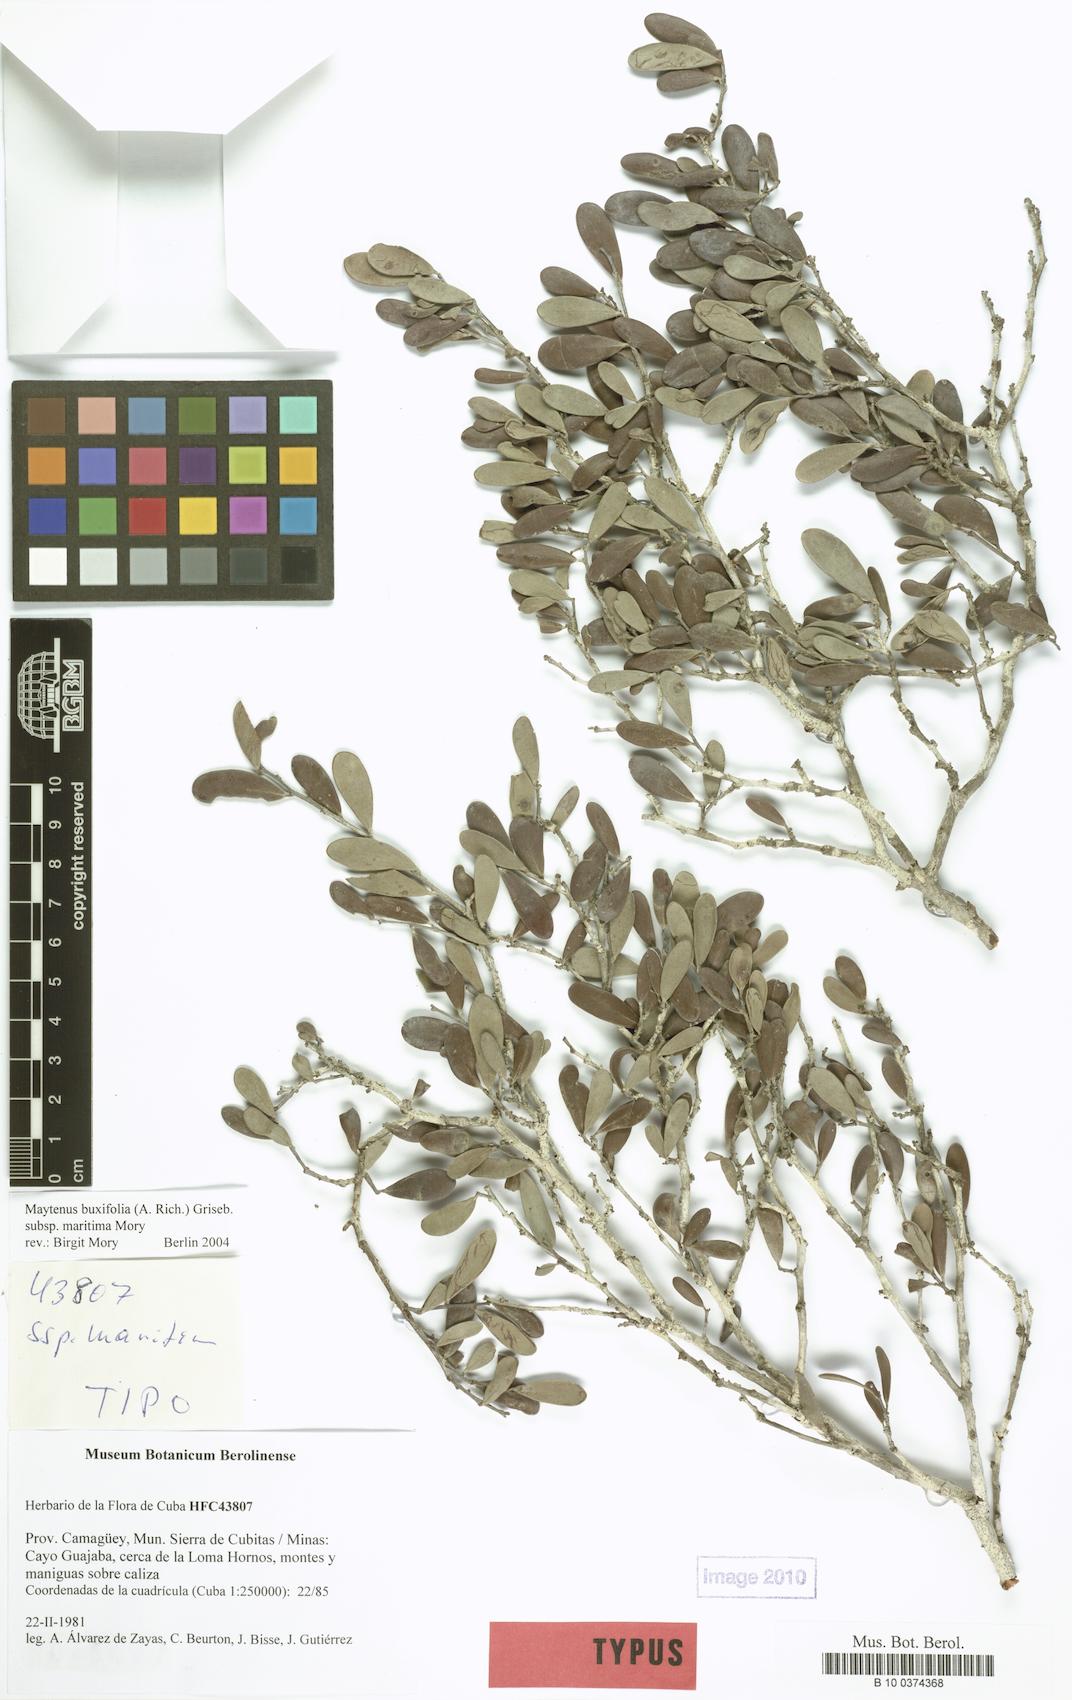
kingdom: Plantae
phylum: Tracheophyta
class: Magnoliopsida
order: Celastrales
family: Celastraceae
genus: Monteverdia
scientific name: Monteverdia buxifolia
